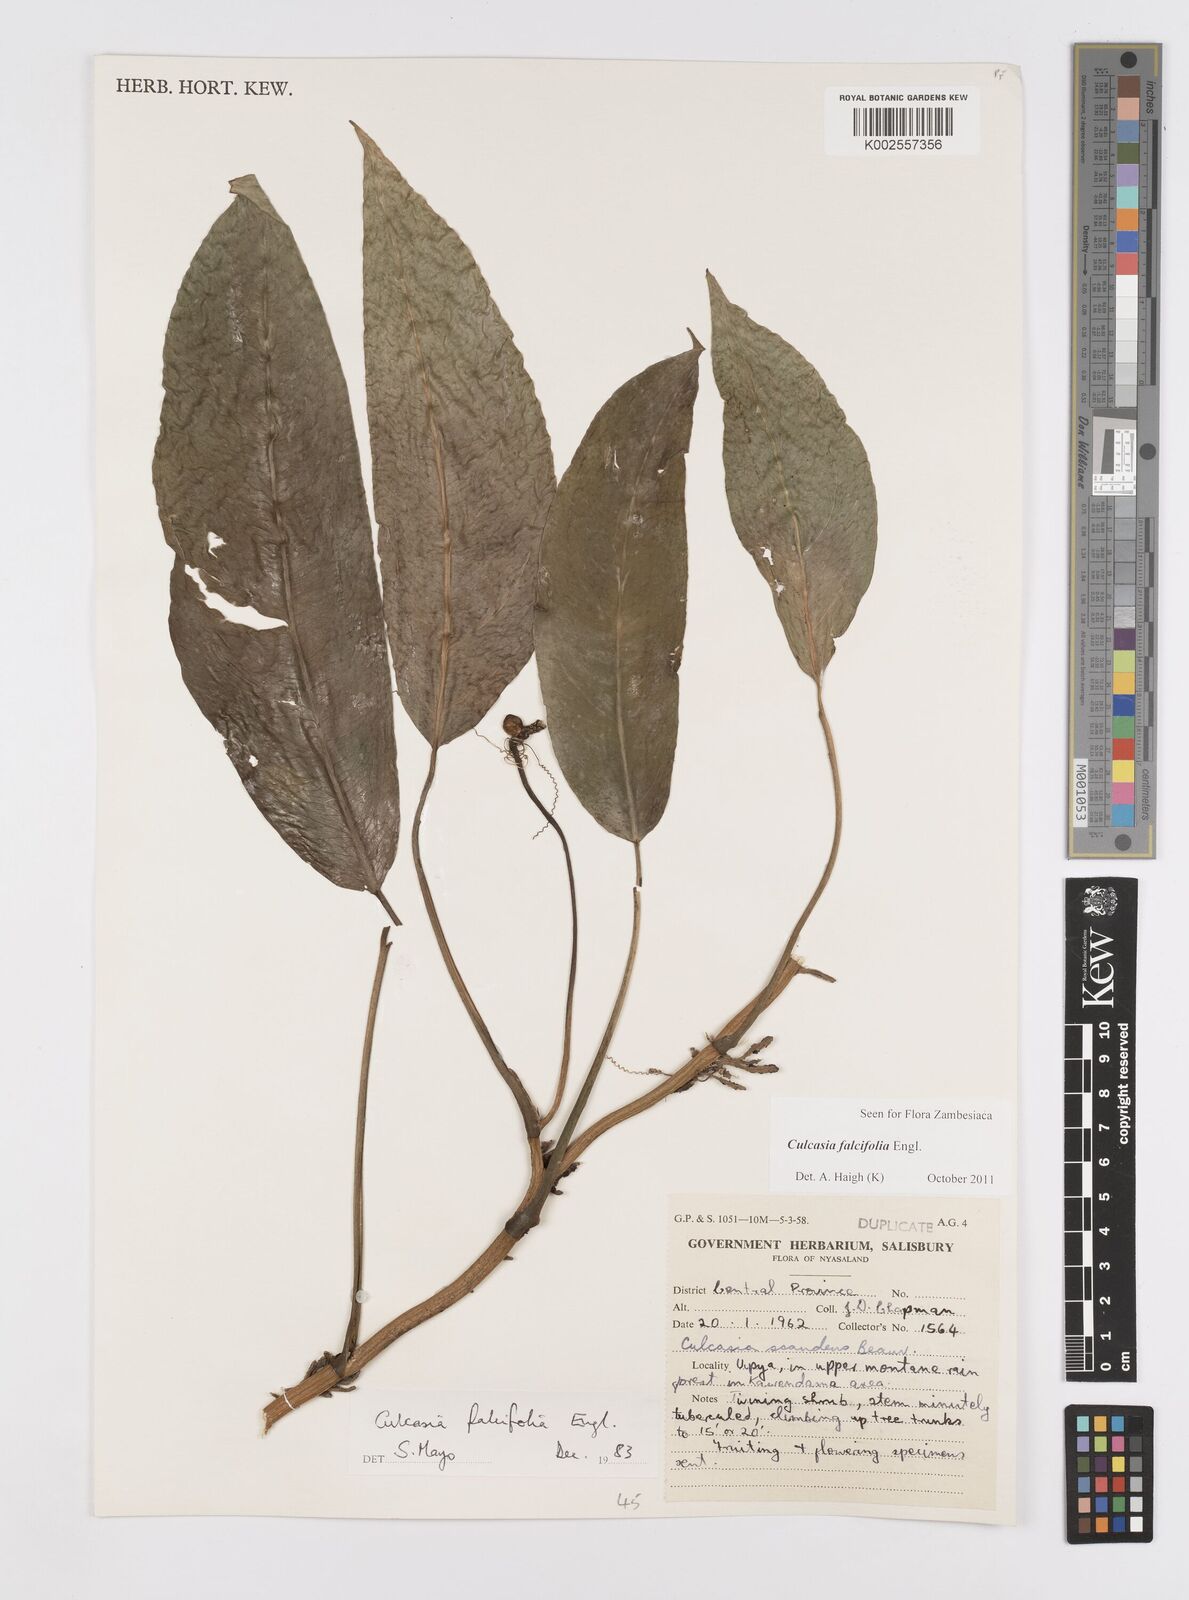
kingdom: Plantae
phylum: Tracheophyta
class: Liliopsida
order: Alismatales
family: Araceae
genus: Culcasia
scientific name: Culcasia falcifolia
